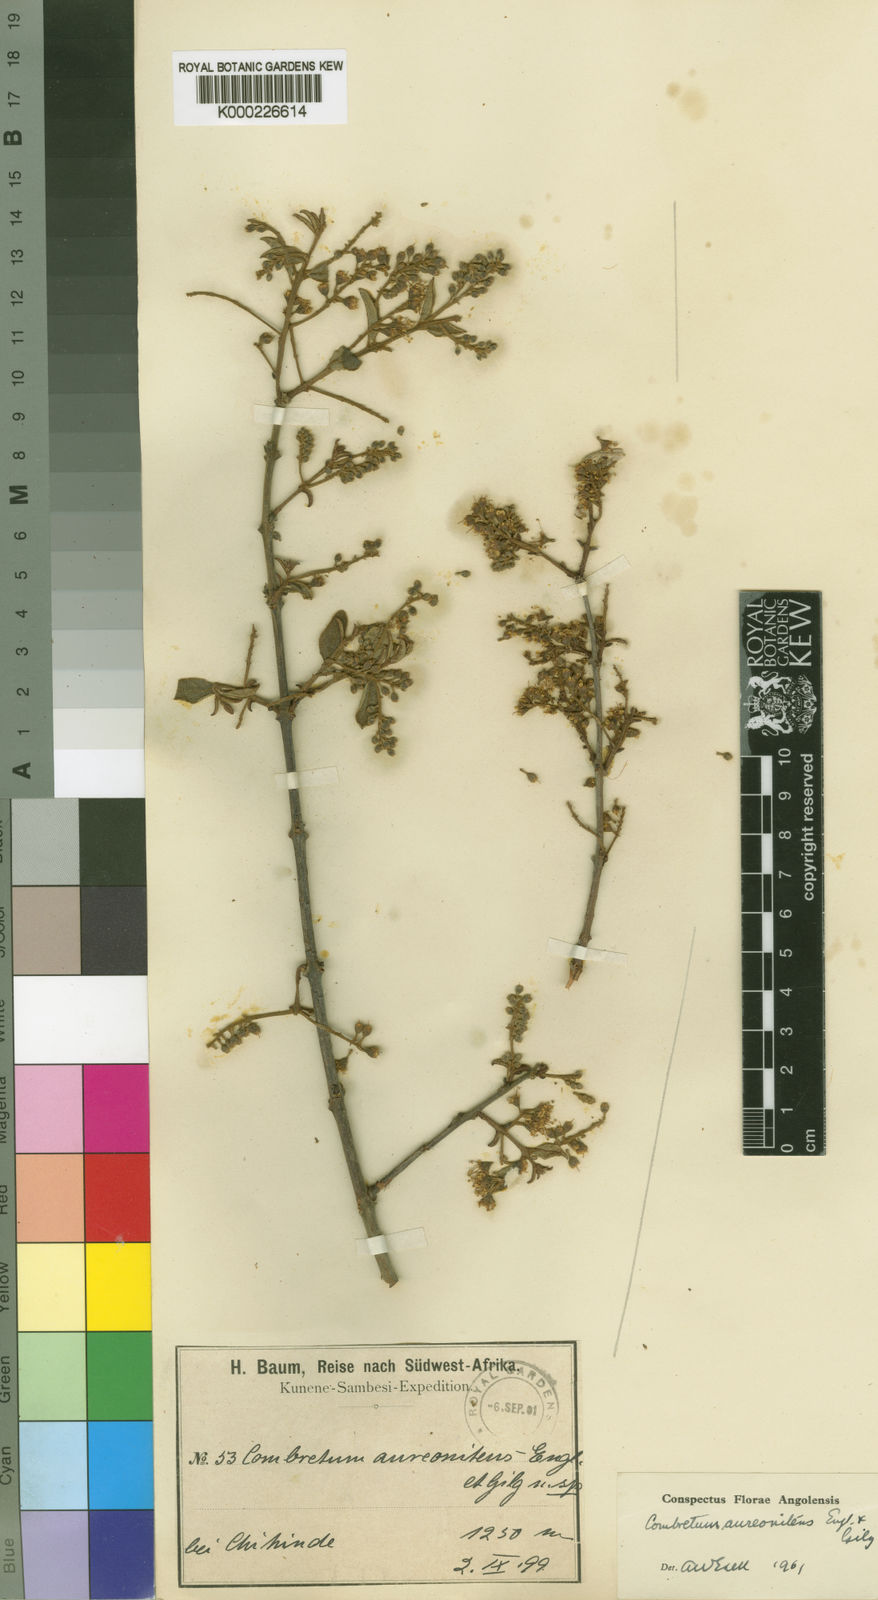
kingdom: Plantae
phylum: Tracheophyta
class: Magnoliopsida
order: Myrtales
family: Combretaceae
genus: Combretum
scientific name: Combretum aureonitens
